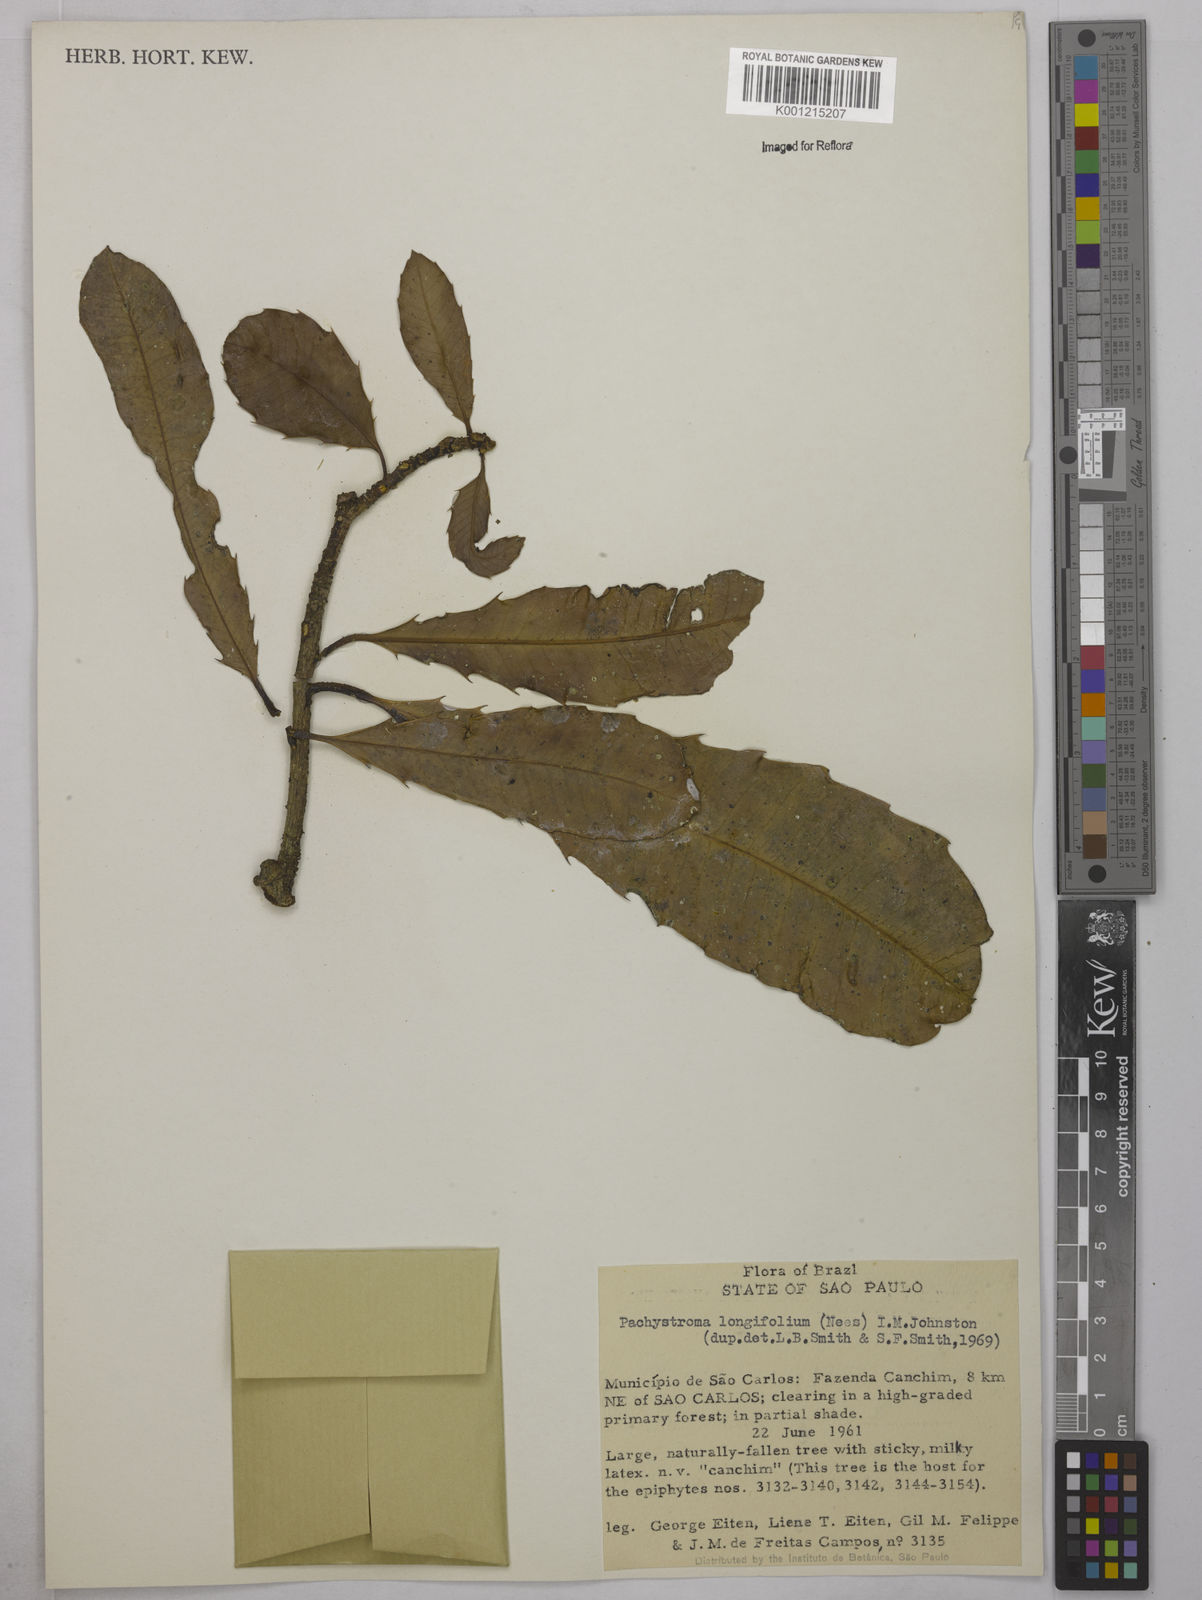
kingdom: Plantae
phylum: Tracheophyta
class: Magnoliopsida
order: Malpighiales
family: Euphorbiaceae
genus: Pachystroma
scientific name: Pachystroma longifolium
